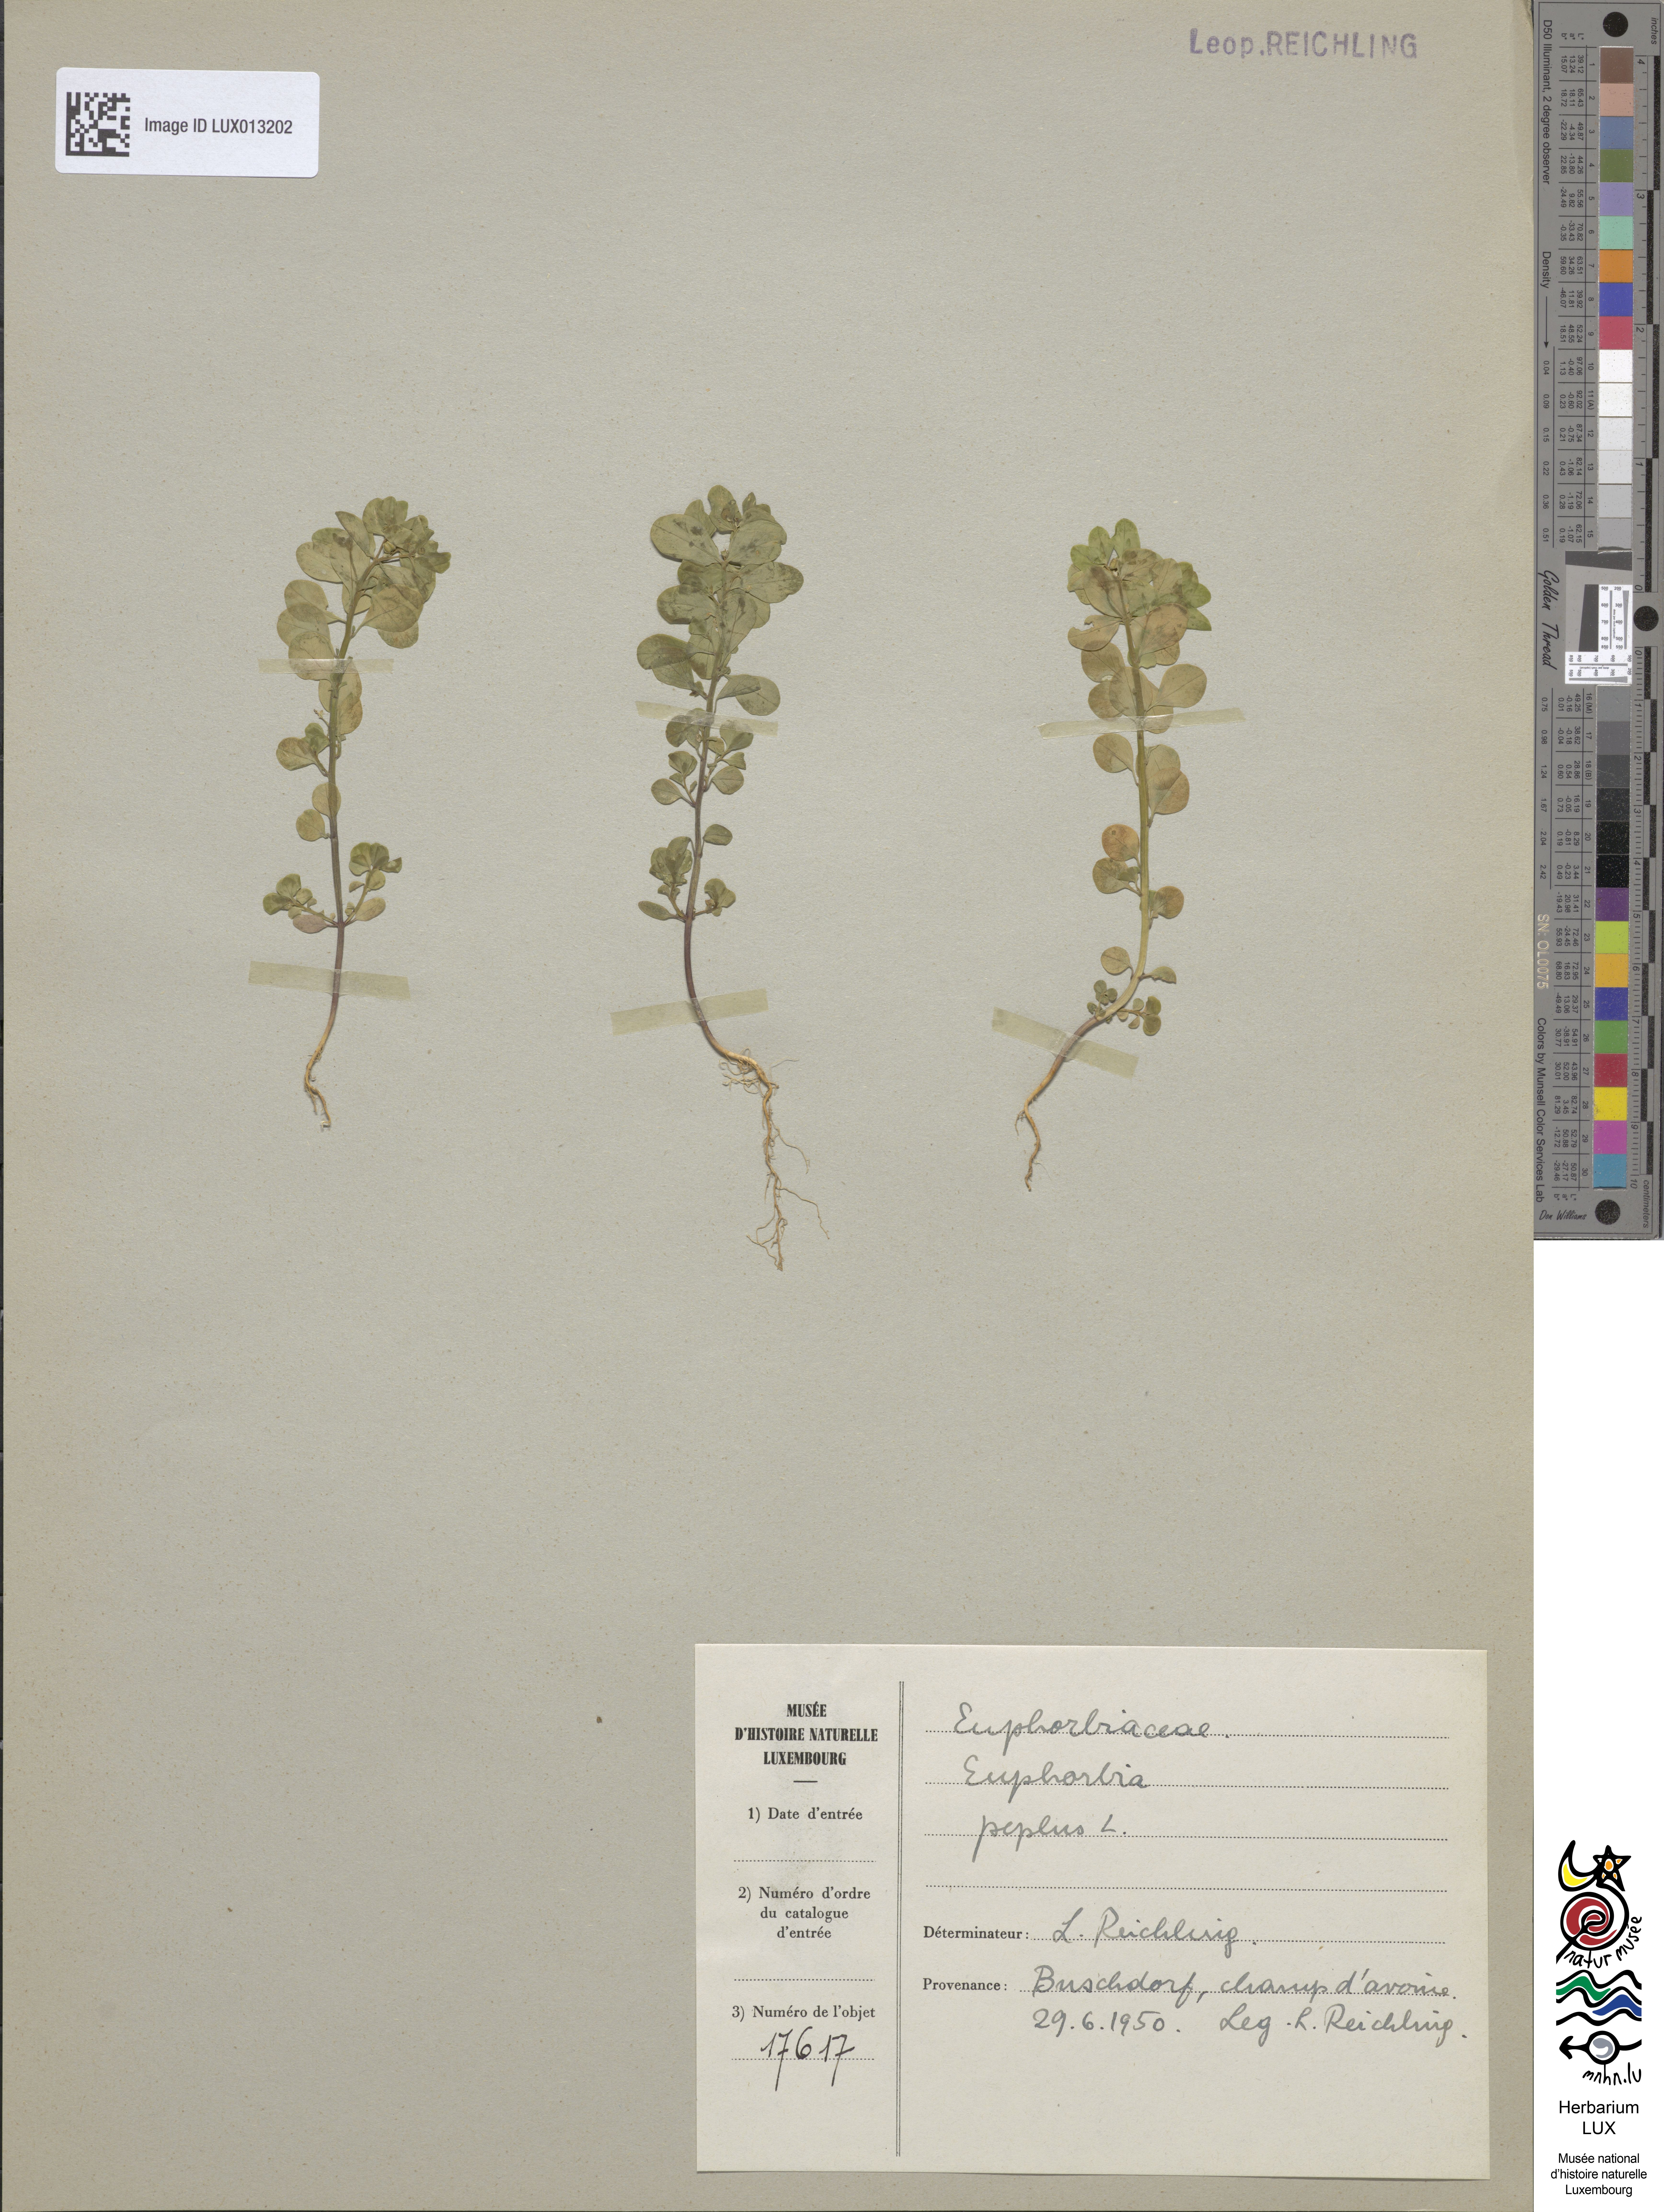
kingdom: Plantae
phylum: Tracheophyta
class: Magnoliopsida
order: Malpighiales
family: Euphorbiaceae
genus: Euphorbia
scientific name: Euphorbia peplus
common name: Petty spurge
